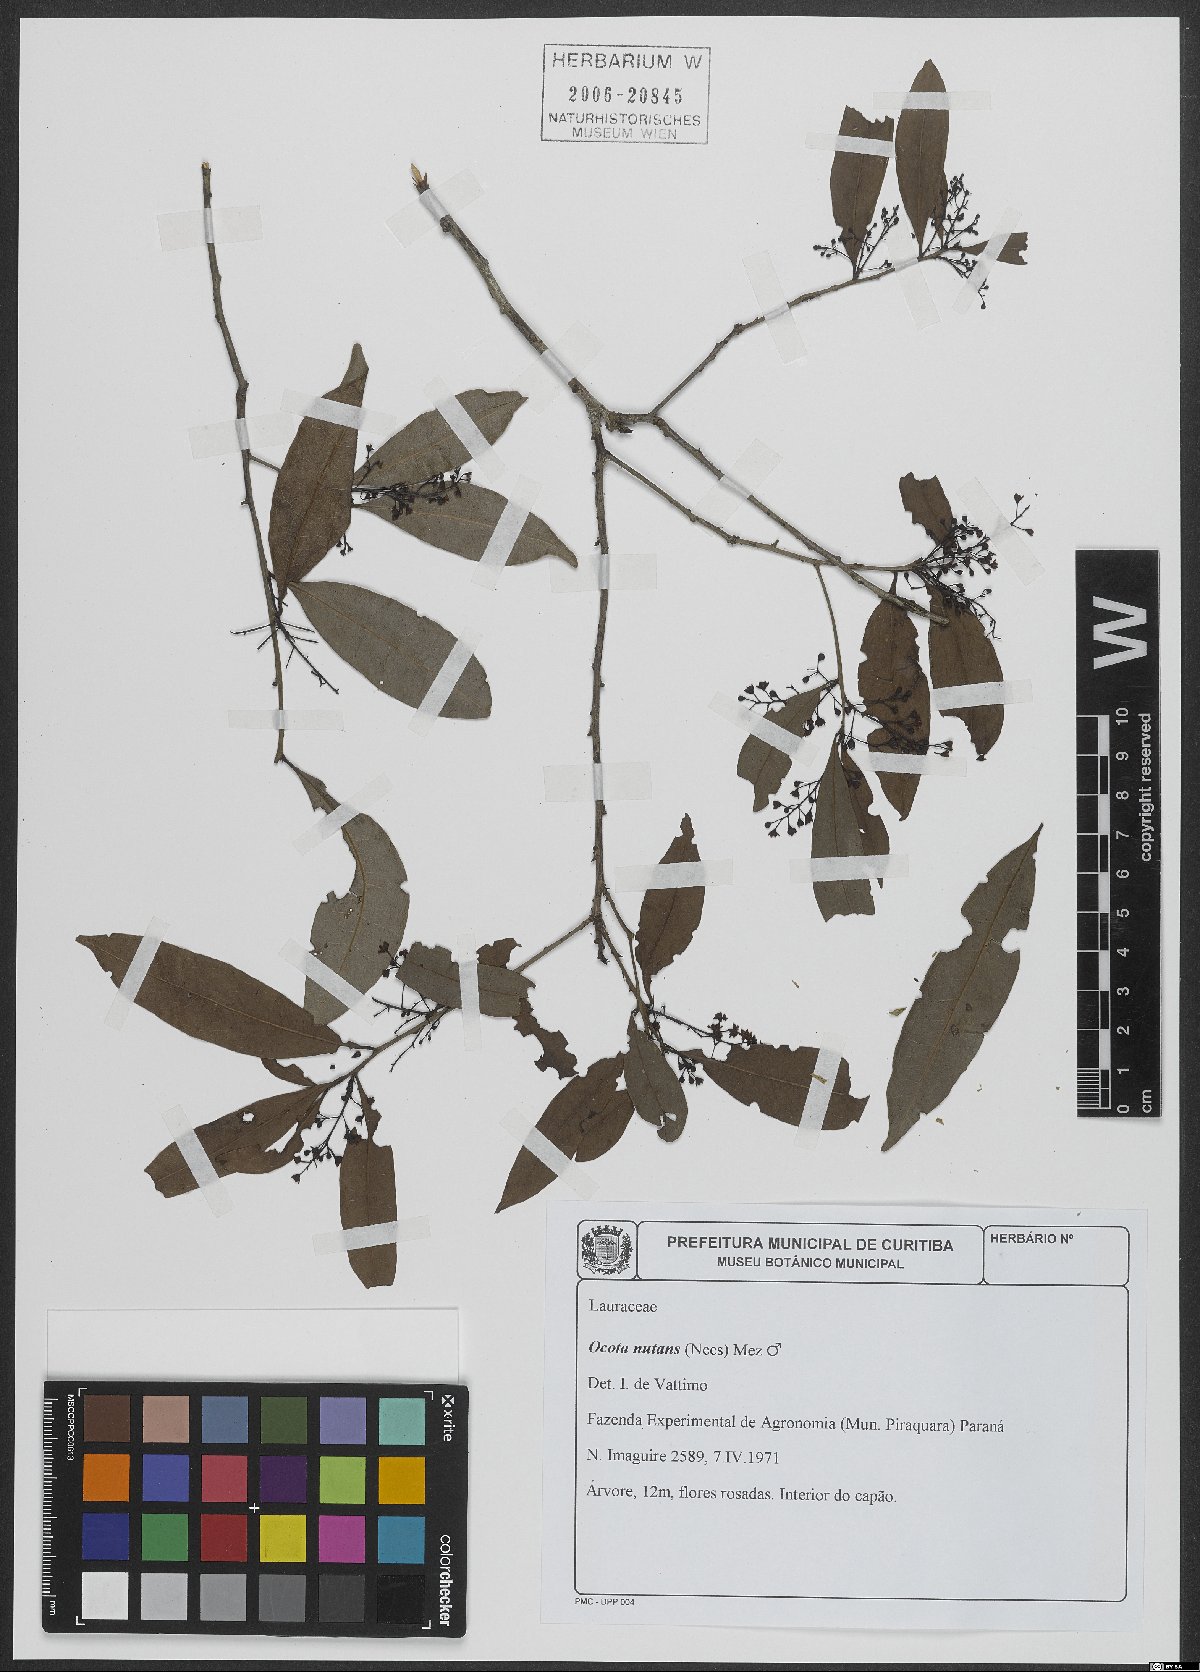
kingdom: Plantae
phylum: Tracheophyta
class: Magnoliopsida
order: Laurales
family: Lauraceae
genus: Mespilodaphne
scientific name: Mespilodaphne nutans
